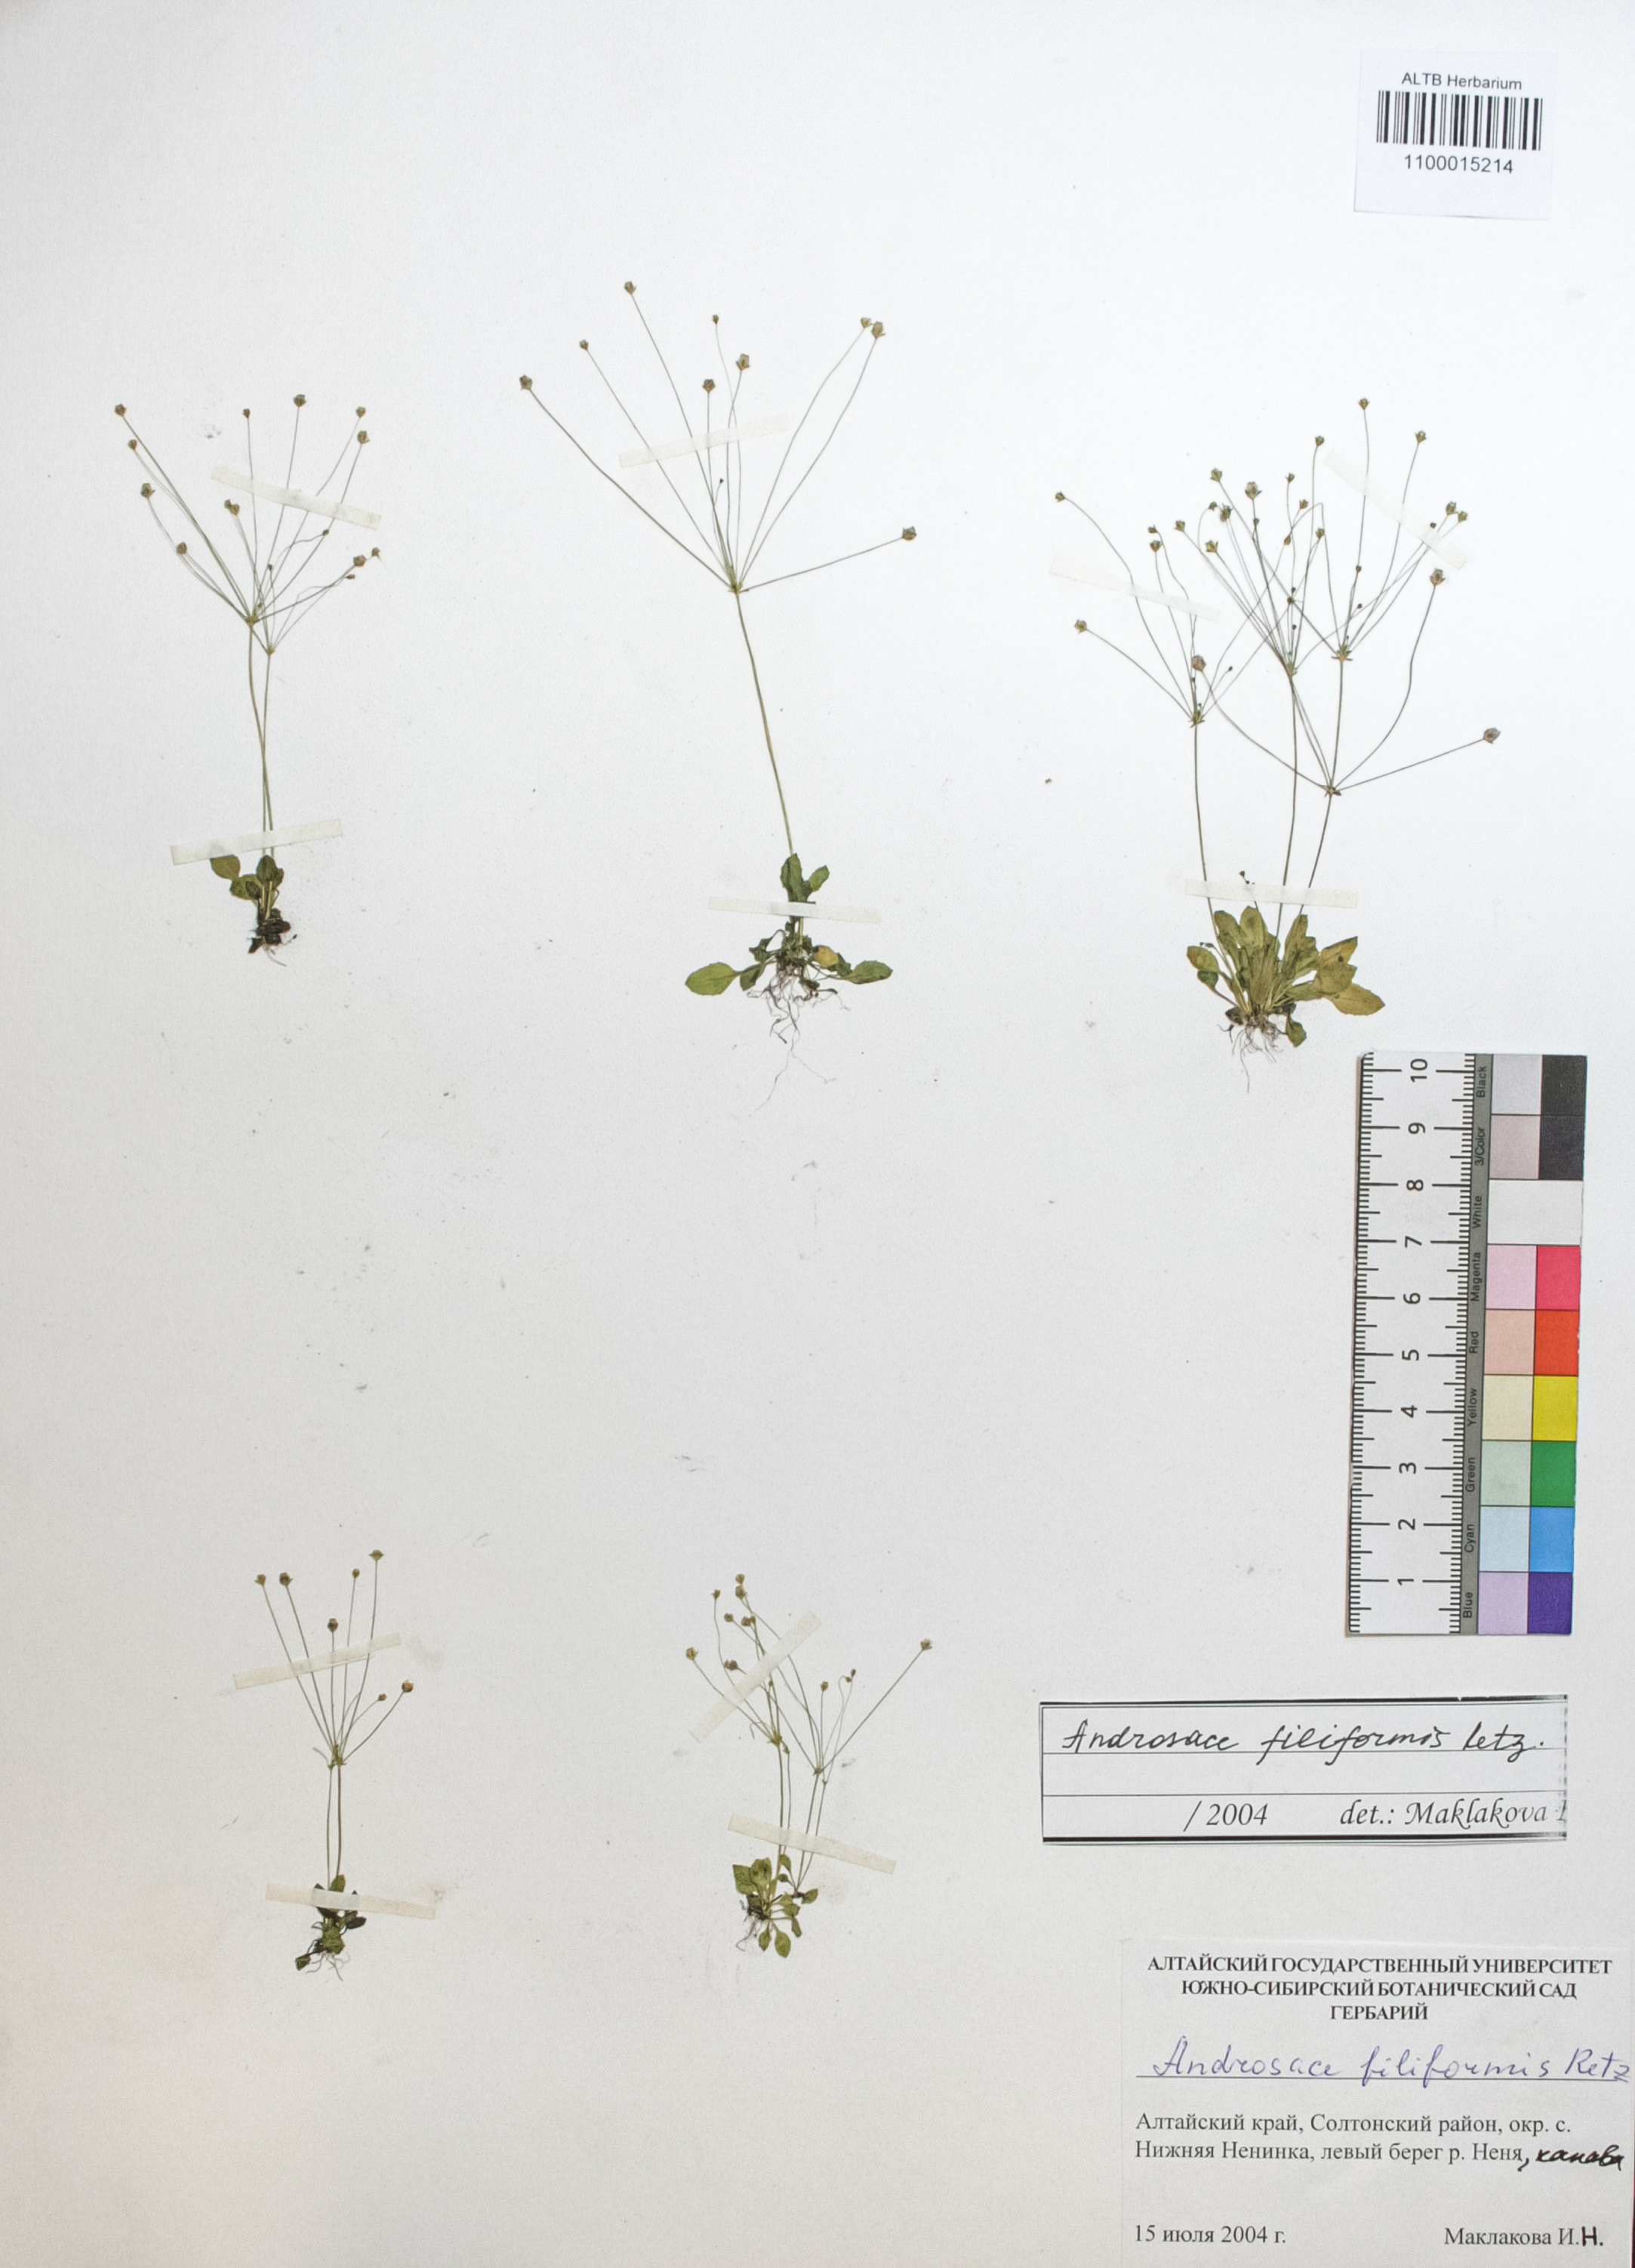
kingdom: Plantae
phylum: Tracheophyta
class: Magnoliopsida
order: Ericales
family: Primulaceae
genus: Androsace
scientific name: Androsace filiformis
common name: Filiform rock jasmine
